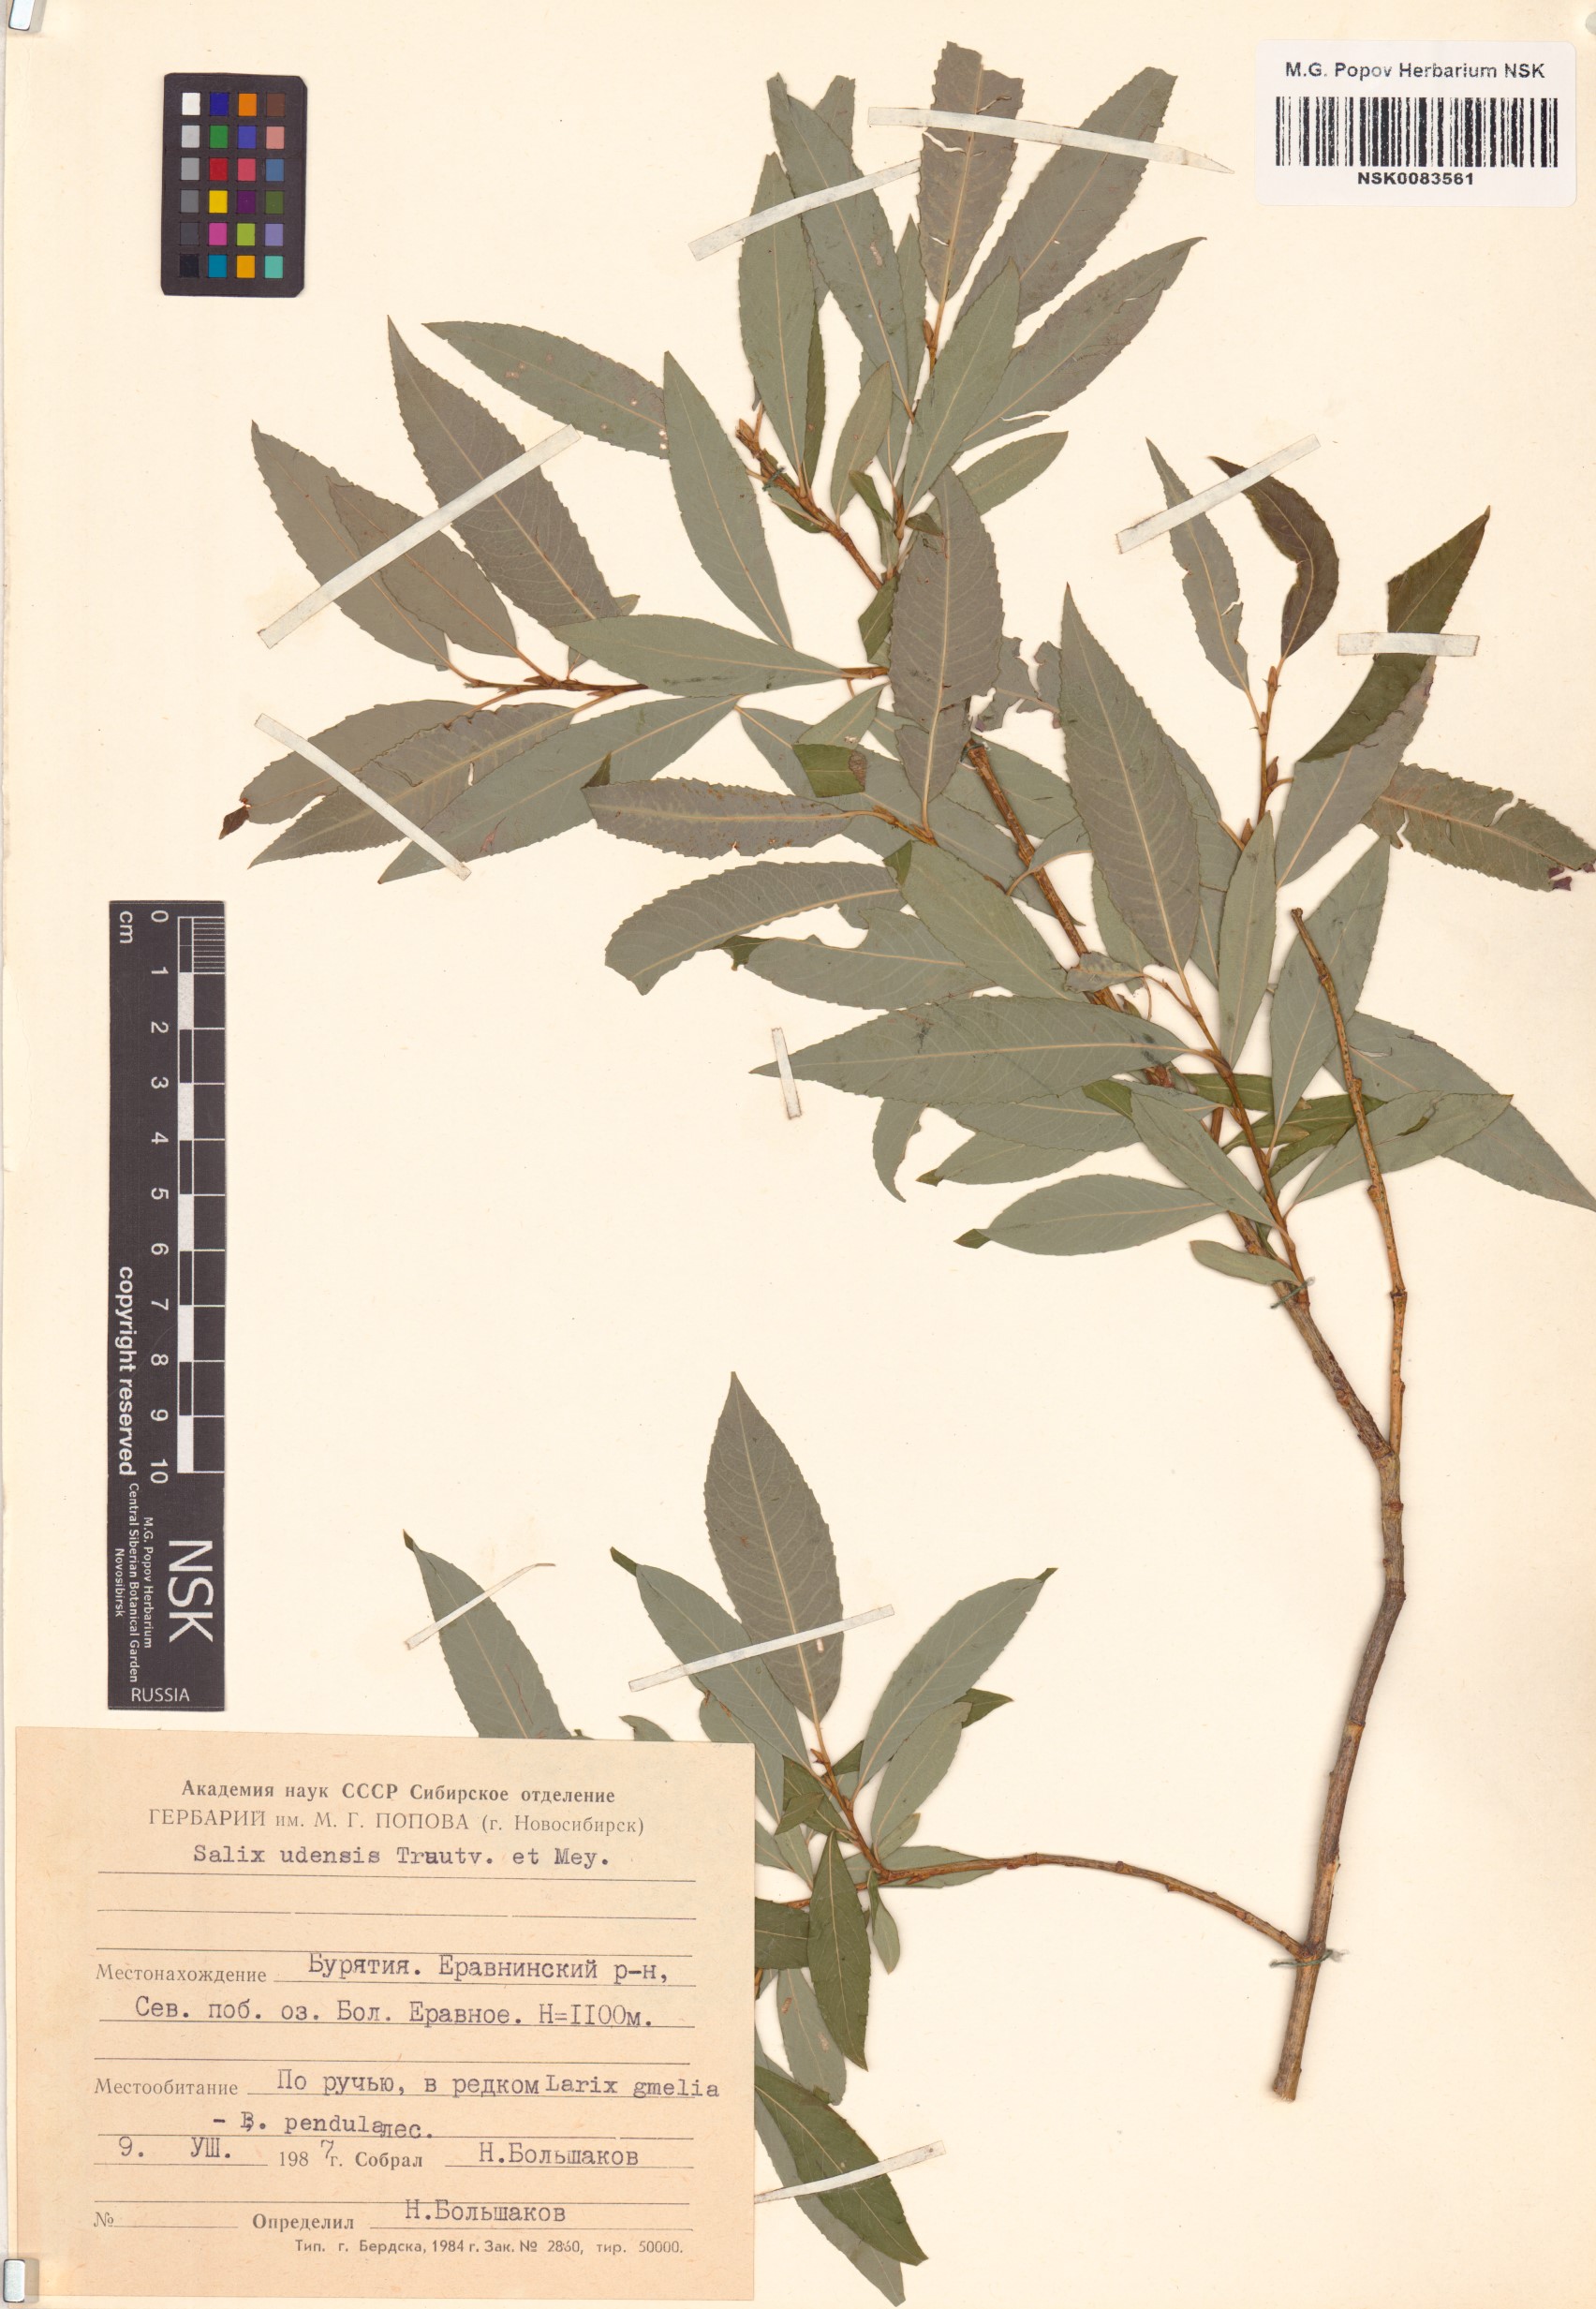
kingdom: Plantae
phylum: Tracheophyta
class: Magnoliopsida
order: Malpighiales
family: Salicaceae
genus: Salix
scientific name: Salix udensis
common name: Sachalin willow
